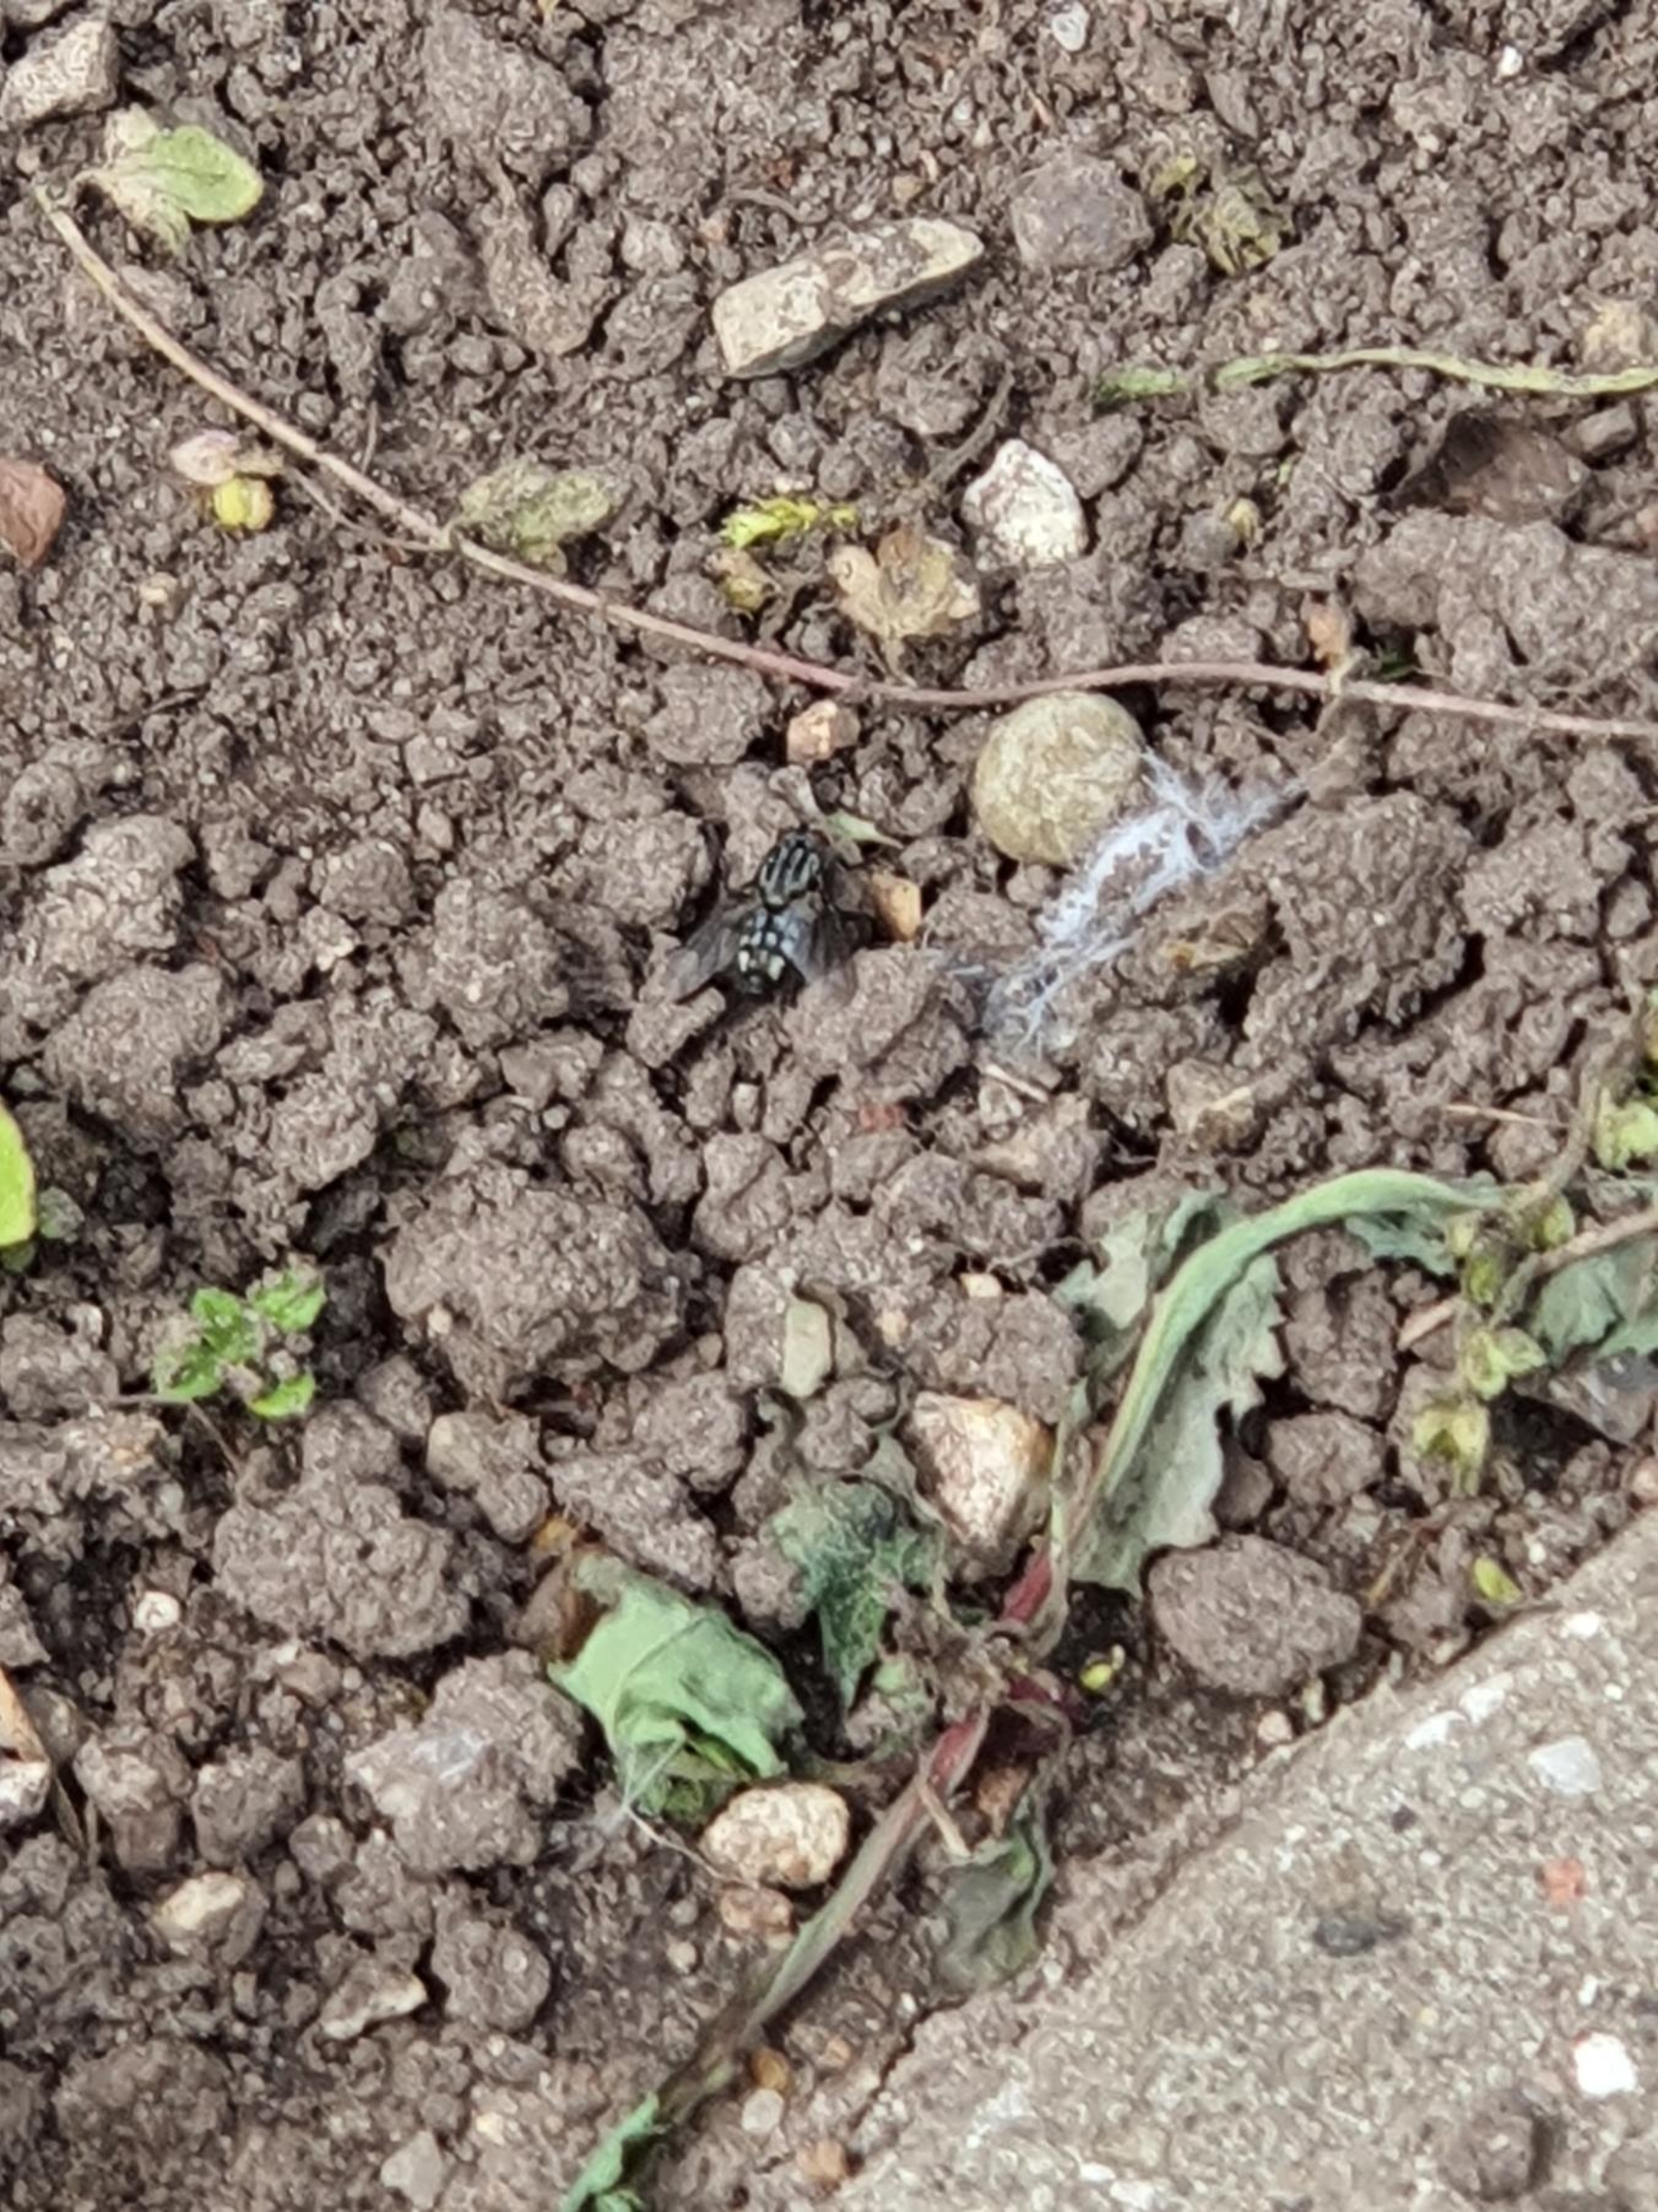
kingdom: Animalia
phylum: Arthropoda
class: Insecta
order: Diptera
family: Sarcophagidae
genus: Sarcophaga
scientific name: Sarcophaga
